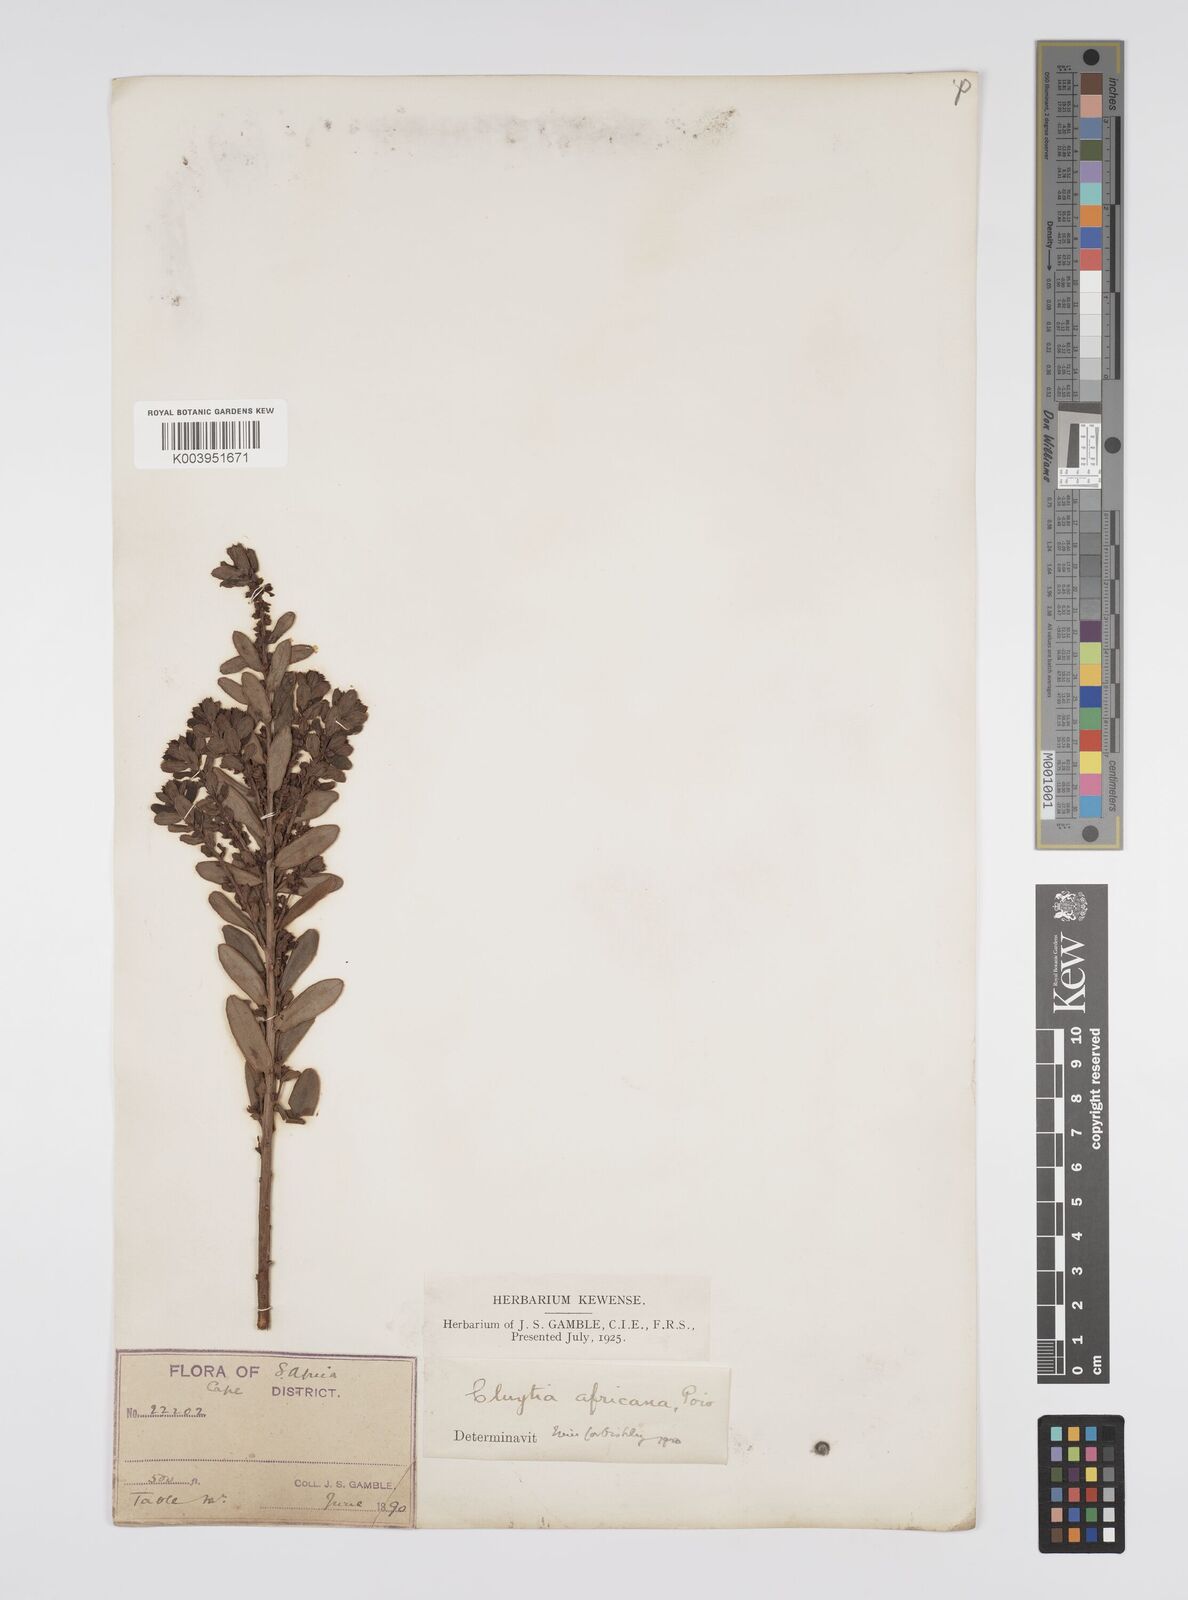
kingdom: Plantae
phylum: Tracheophyta
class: Magnoliopsida
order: Malpighiales
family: Peraceae
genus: Clutia
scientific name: Clutia africana
